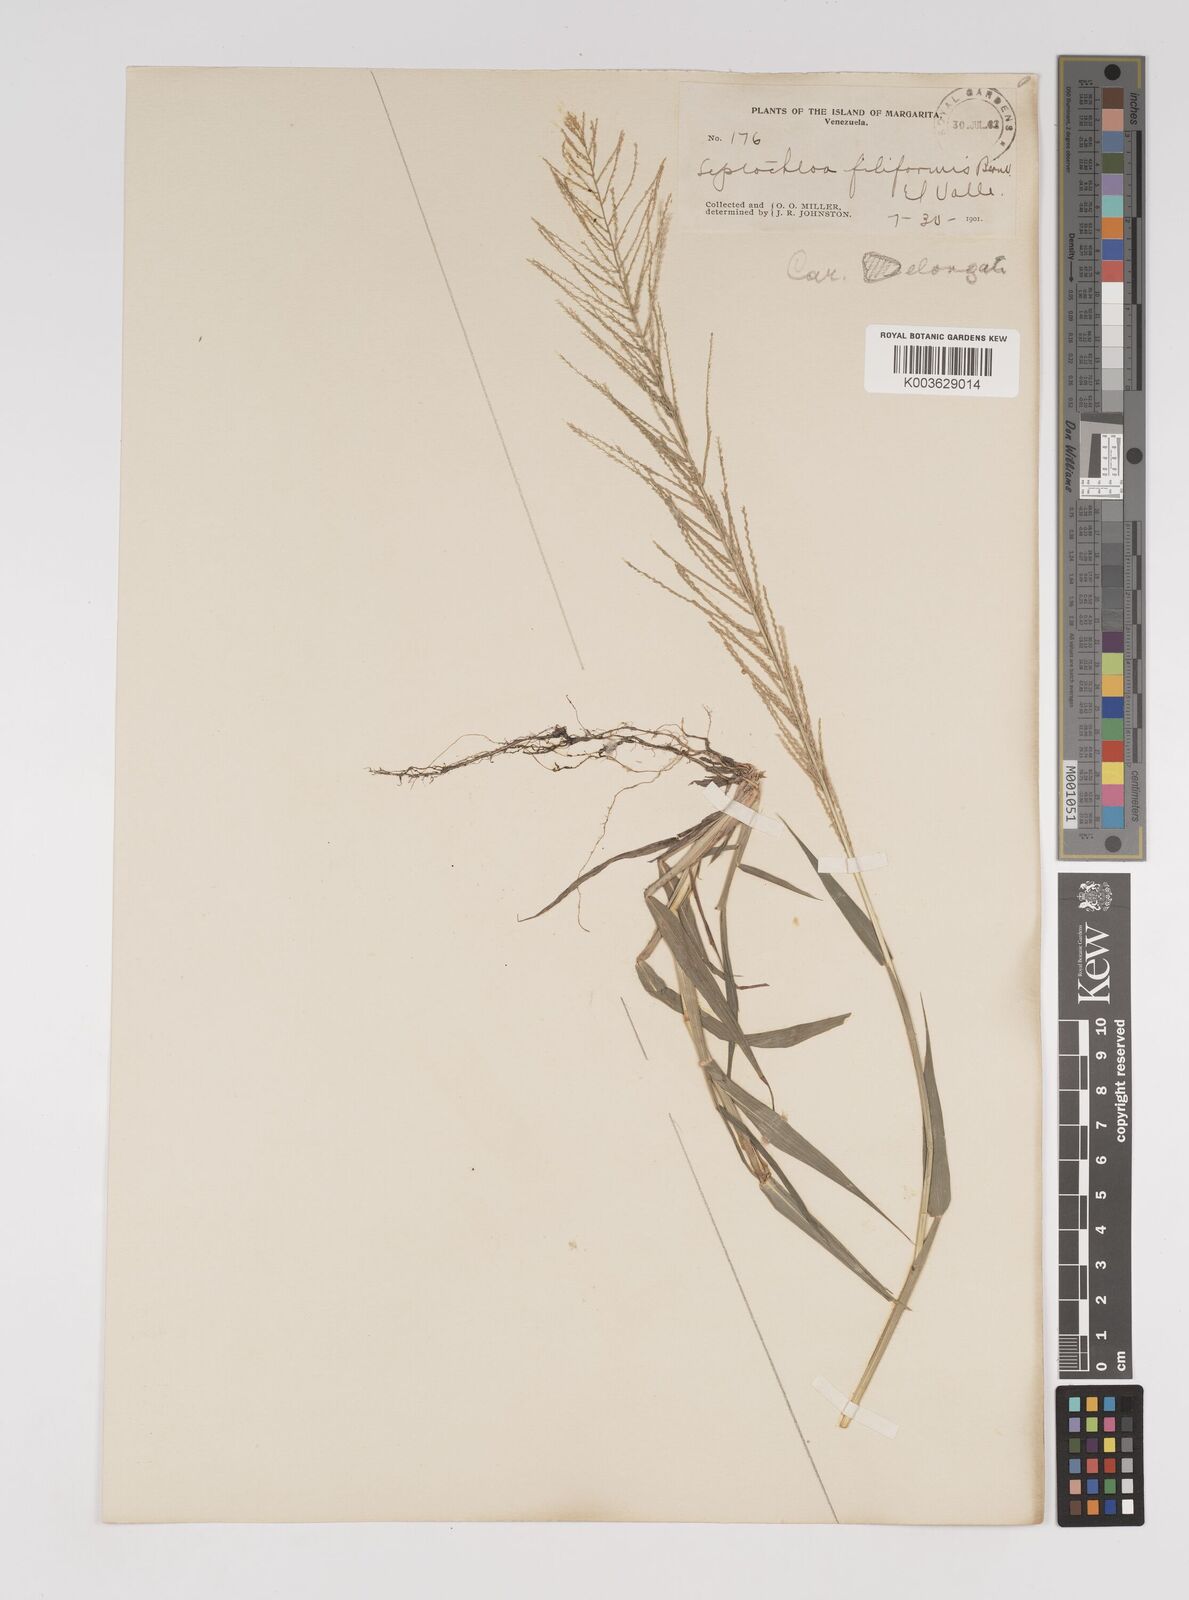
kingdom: Plantae
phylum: Tracheophyta
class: Liliopsida
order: Poales
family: Poaceae
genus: Leptochloa
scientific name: Leptochloa panicea
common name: Mucronate sprangletop
